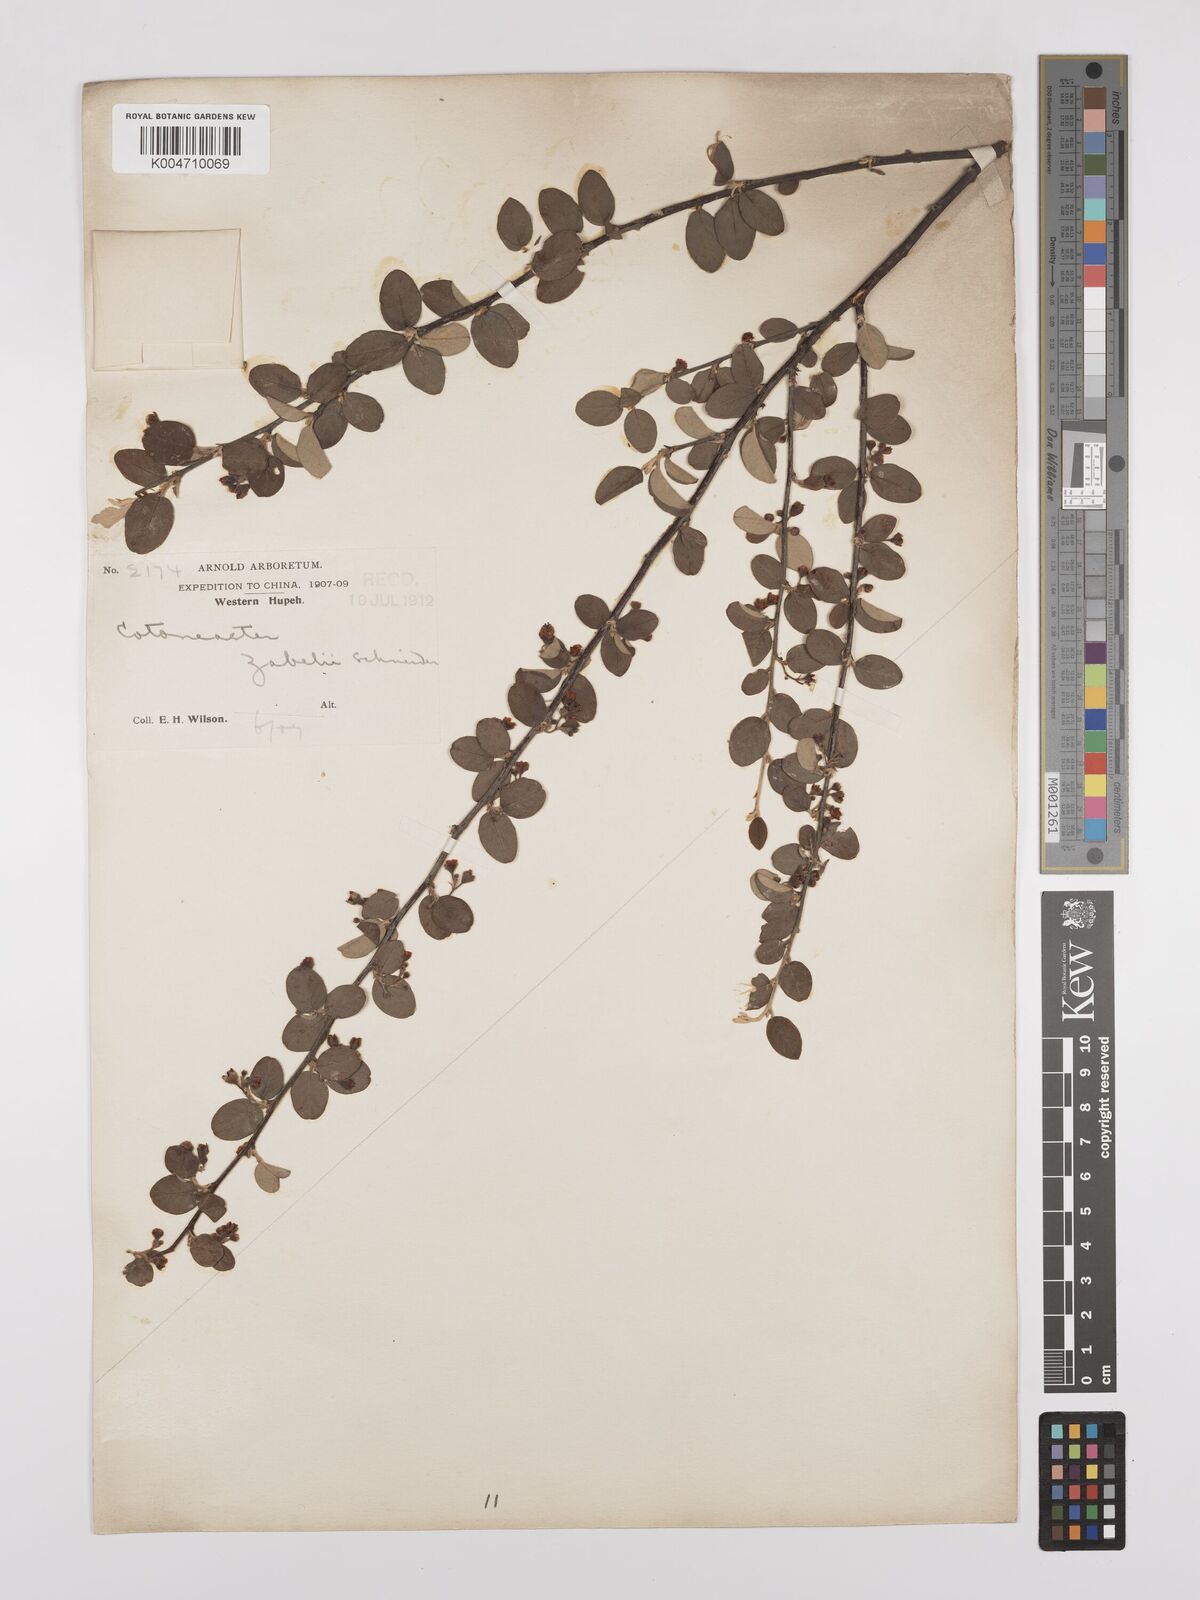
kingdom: Plantae
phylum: Tracheophyta
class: Magnoliopsida
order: Rosales
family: Rosaceae
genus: Cotoneaster
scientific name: Cotoneaster zabelii
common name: Cherryred cotoneaster
